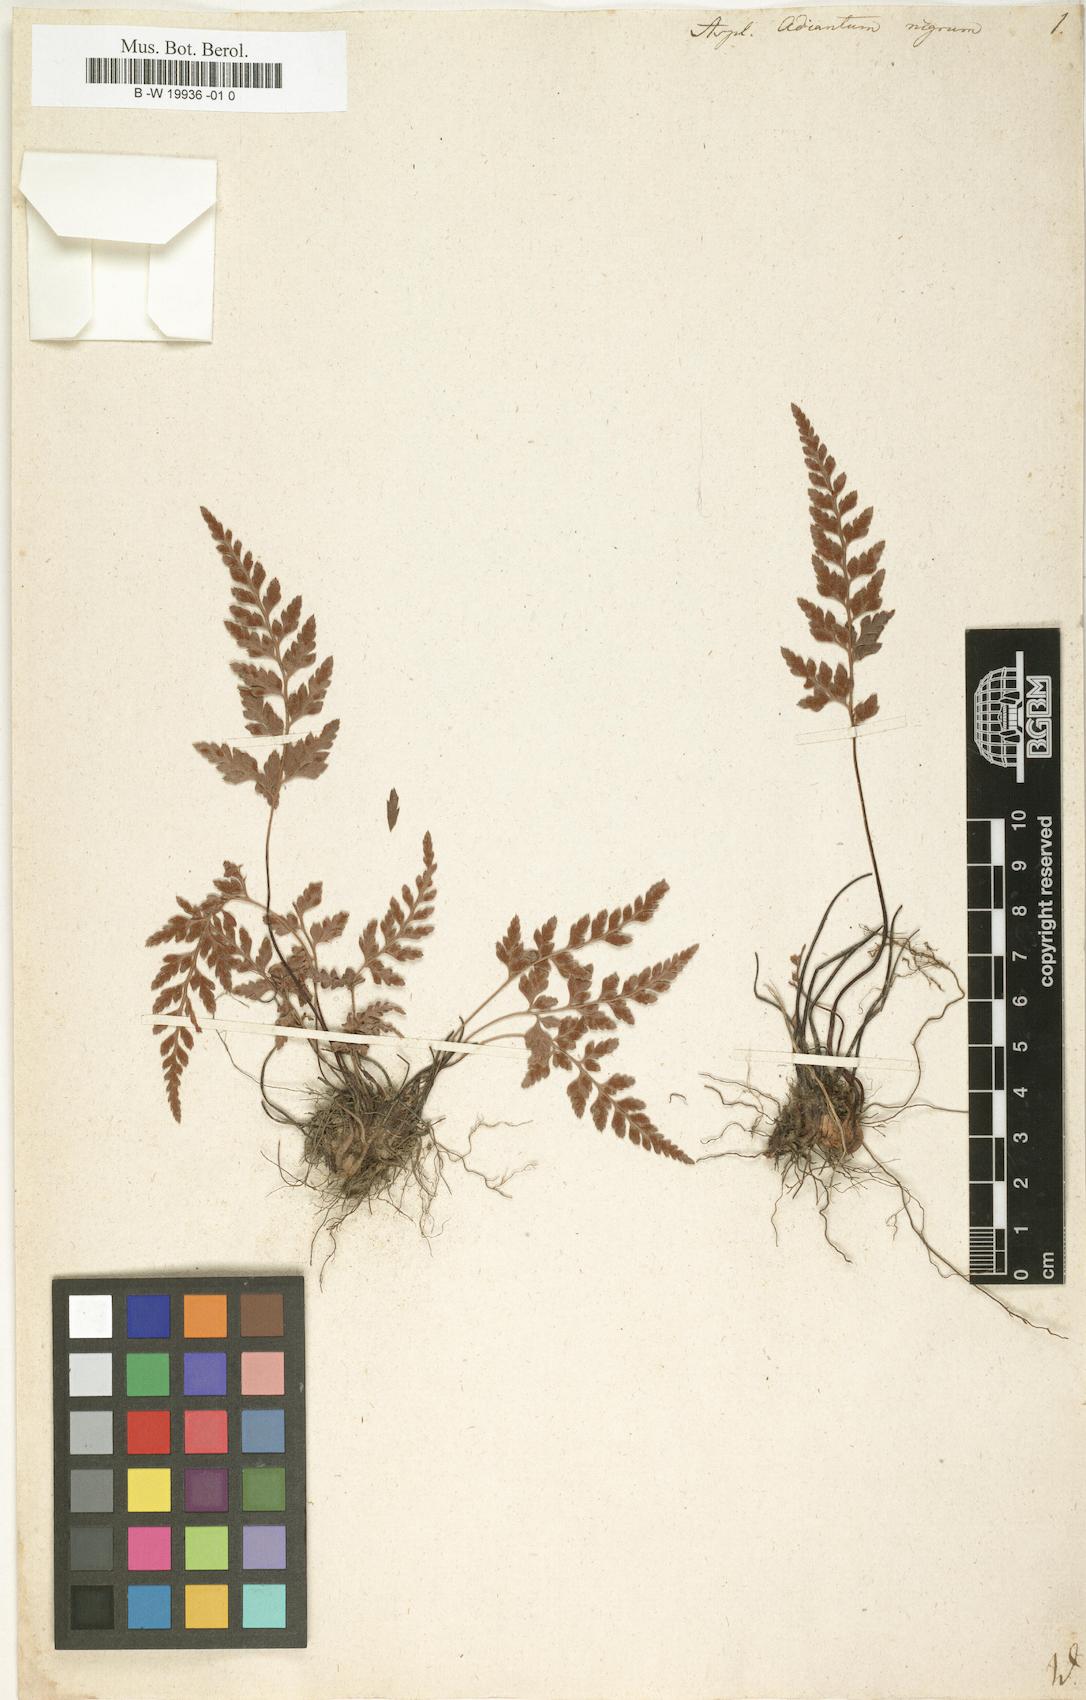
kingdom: Plantae
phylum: Tracheophyta
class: Polypodiopsida
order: Polypodiales
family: Aspleniaceae
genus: Asplenium
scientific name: Asplenium adiantum-nigrum
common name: Black spleenwort
